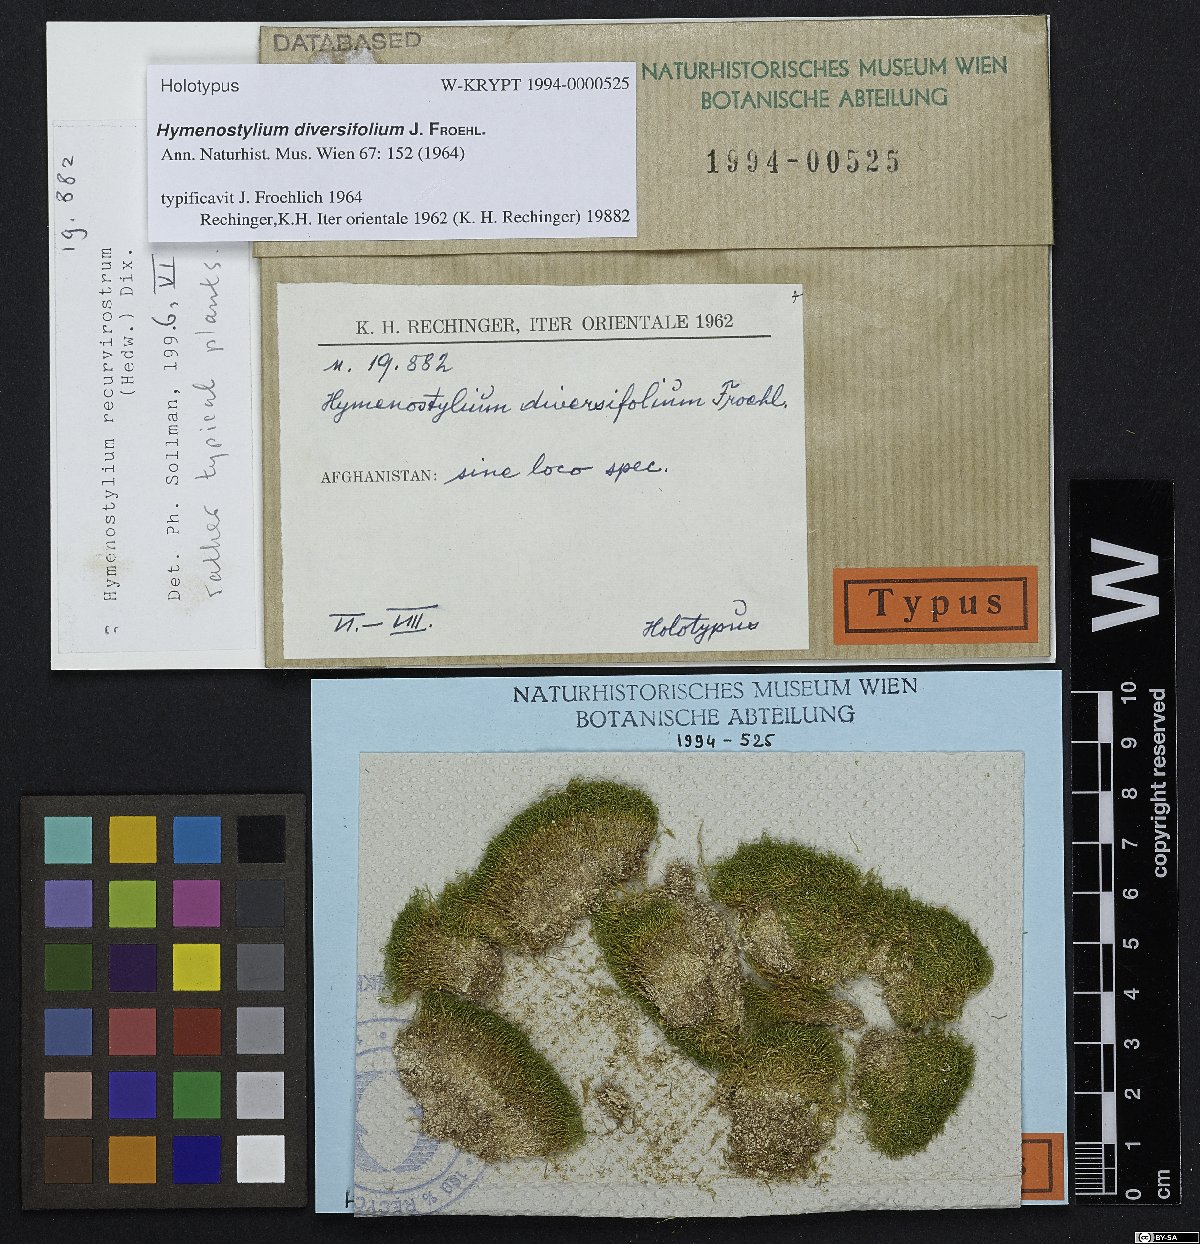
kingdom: Plantae
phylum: Bryophyta
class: Bryopsida
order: Pottiales
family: Pottiaceae
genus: Hymenostylium
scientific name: Hymenostylium recurvirostrum
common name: Hook-beak tufa-moss
